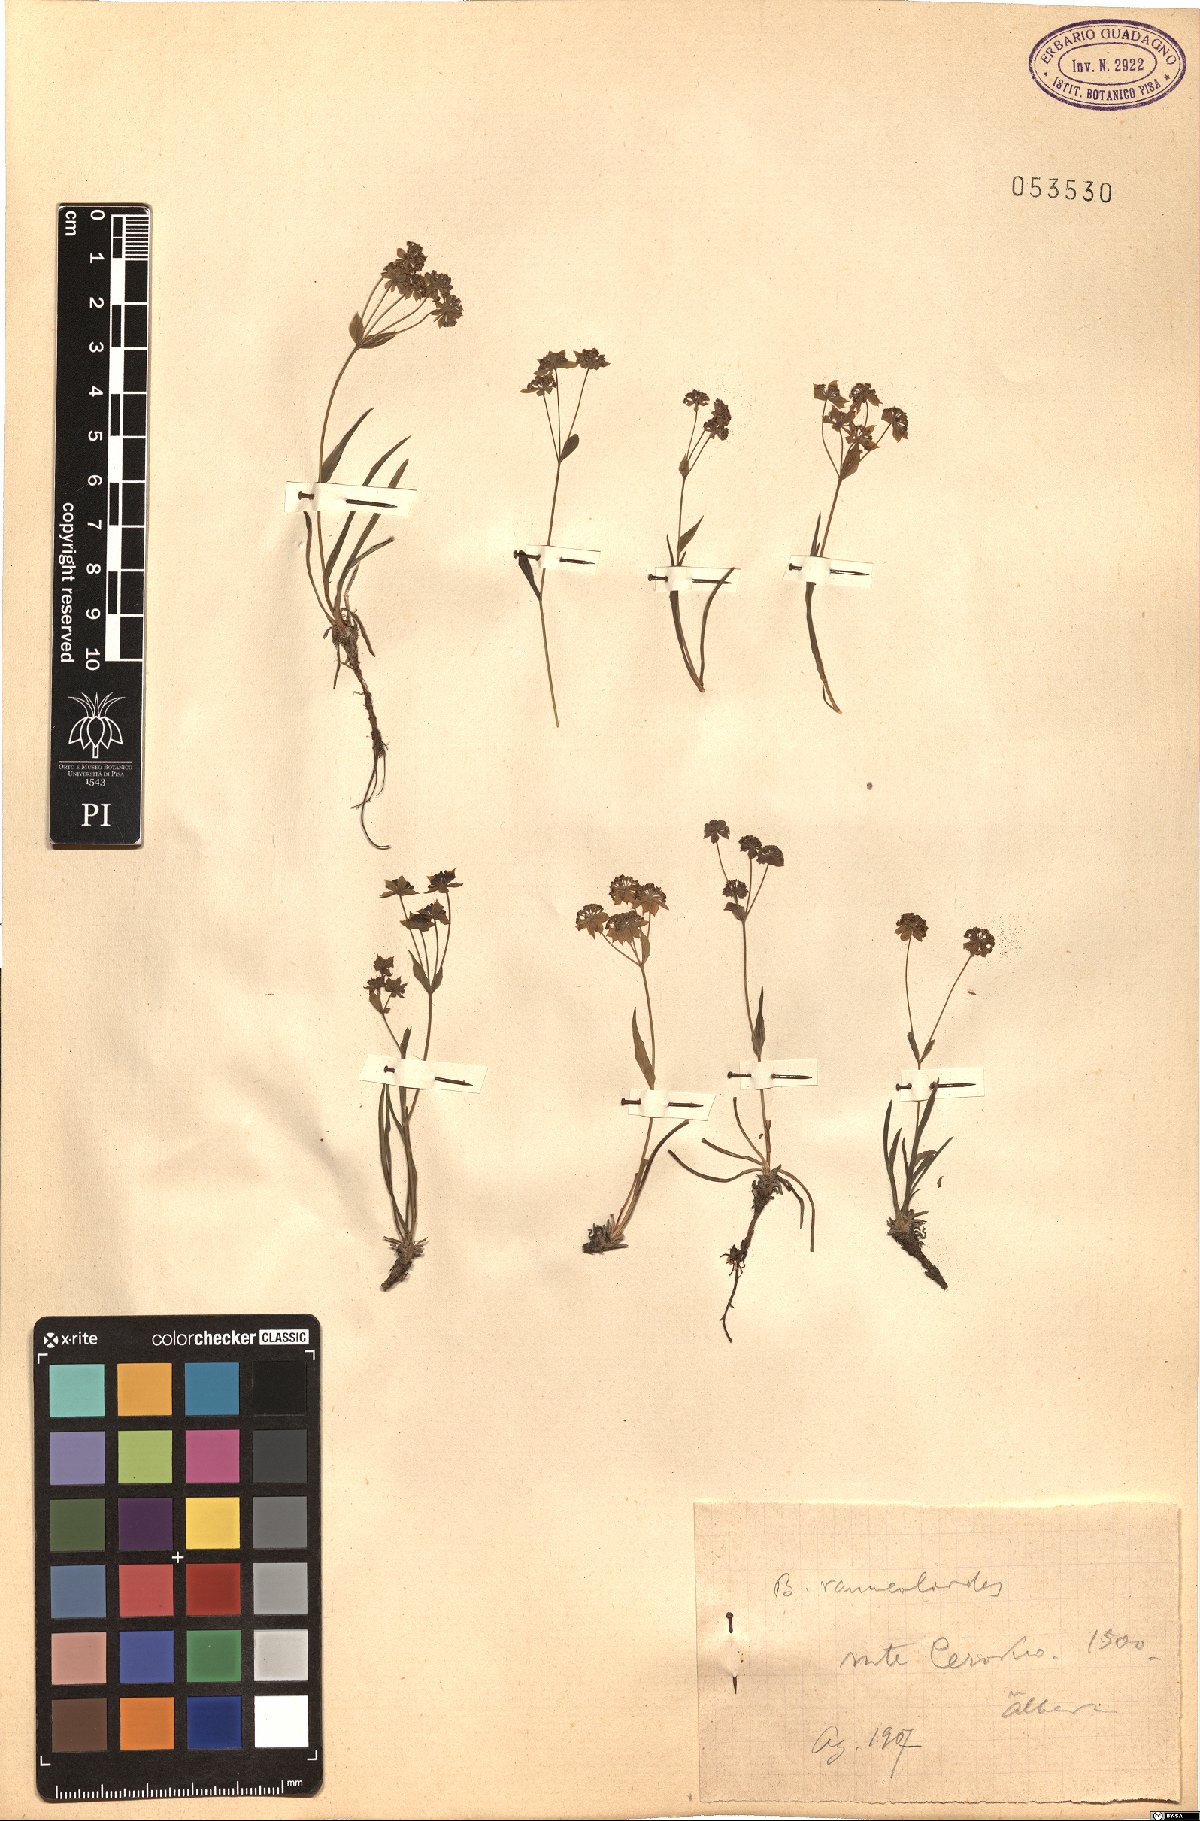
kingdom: Plantae
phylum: Tracheophyta
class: Magnoliopsida
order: Apiales
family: Apiaceae
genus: Bupleurum
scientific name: Bupleurum ranunculoides
